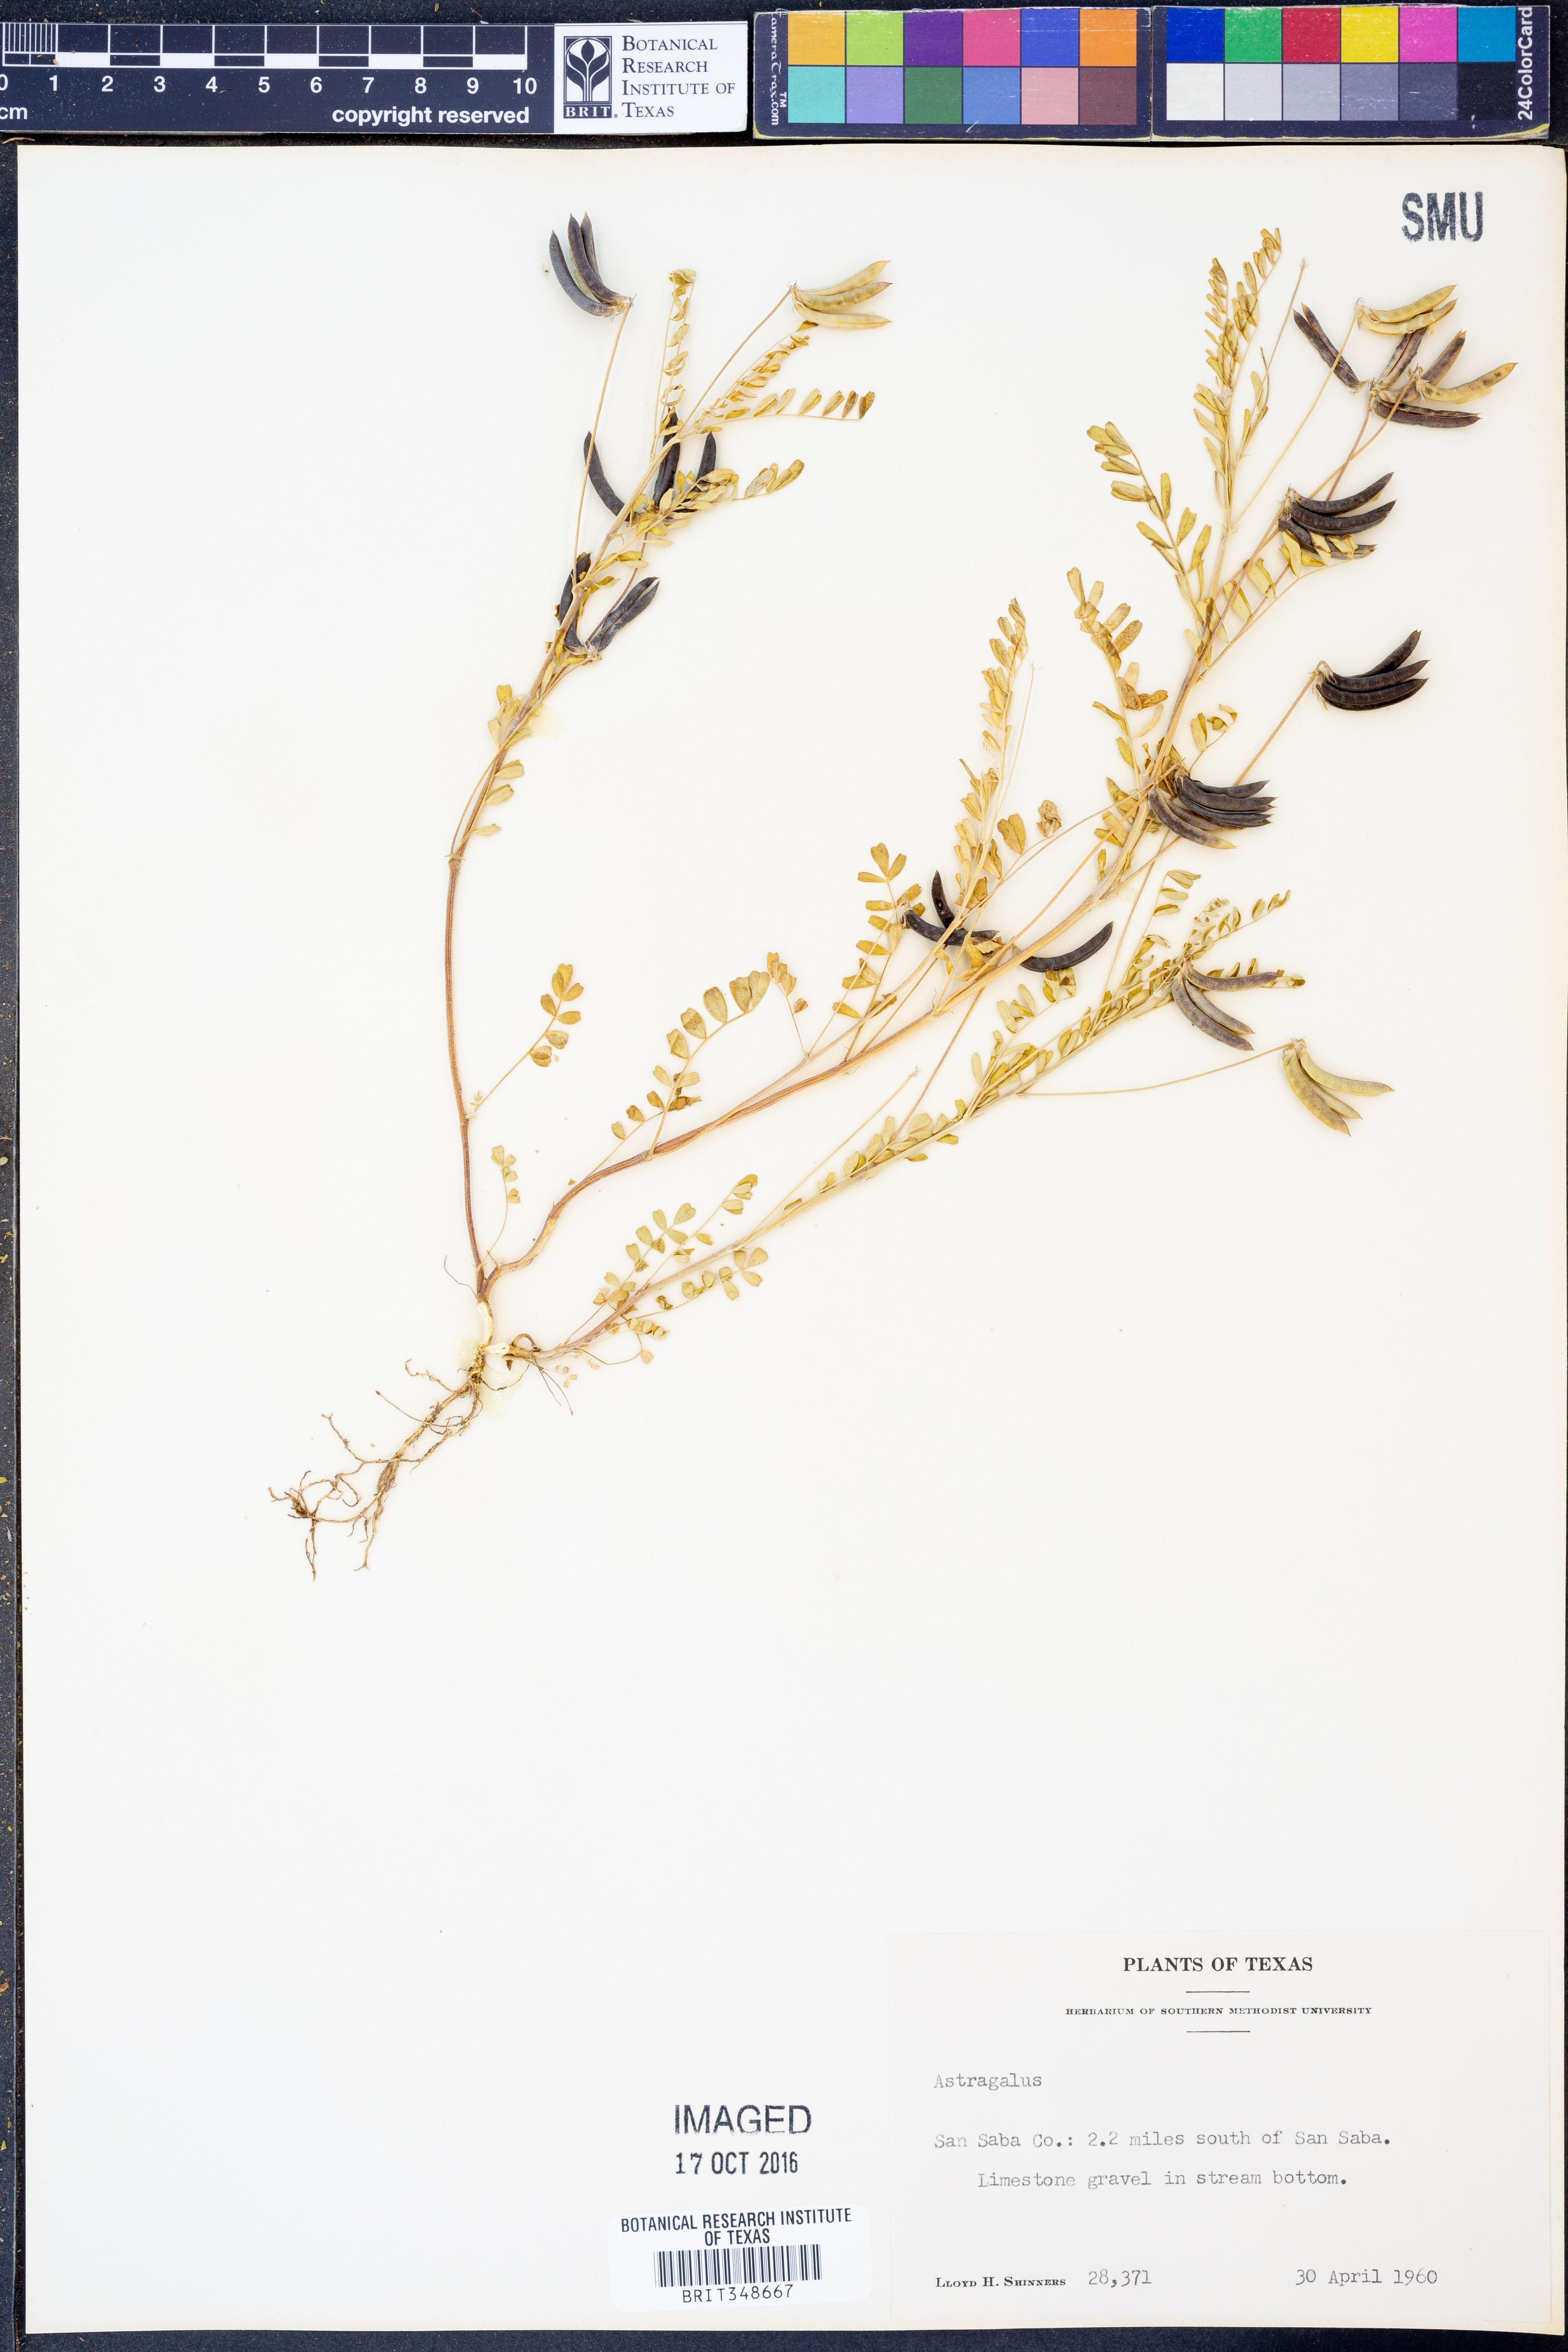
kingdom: Plantae
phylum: Tracheophyta
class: Magnoliopsida
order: Fabales
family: Fabaceae
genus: Astragalus
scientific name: Astragalus
